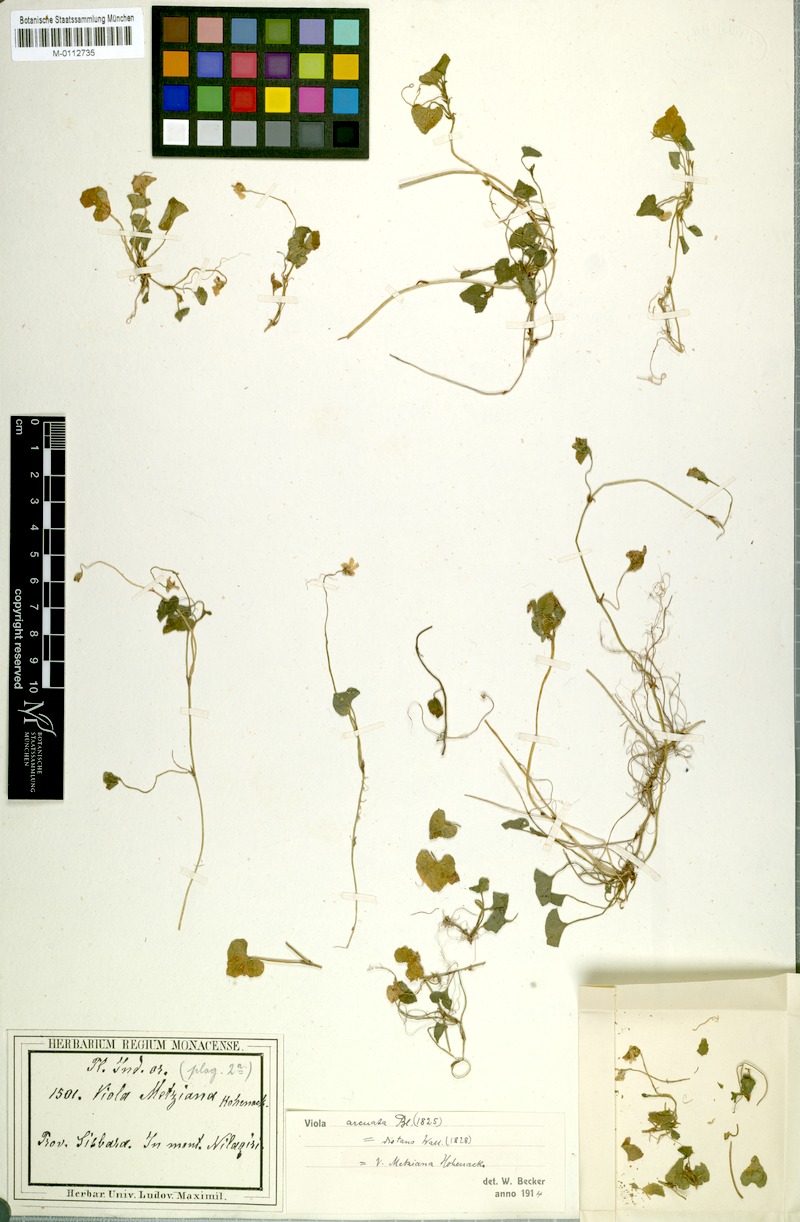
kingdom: Plantae
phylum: Tracheophyta
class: Magnoliopsida
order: Malpighiales
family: Violaceae
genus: Viola
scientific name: Viola hamiltoniana
